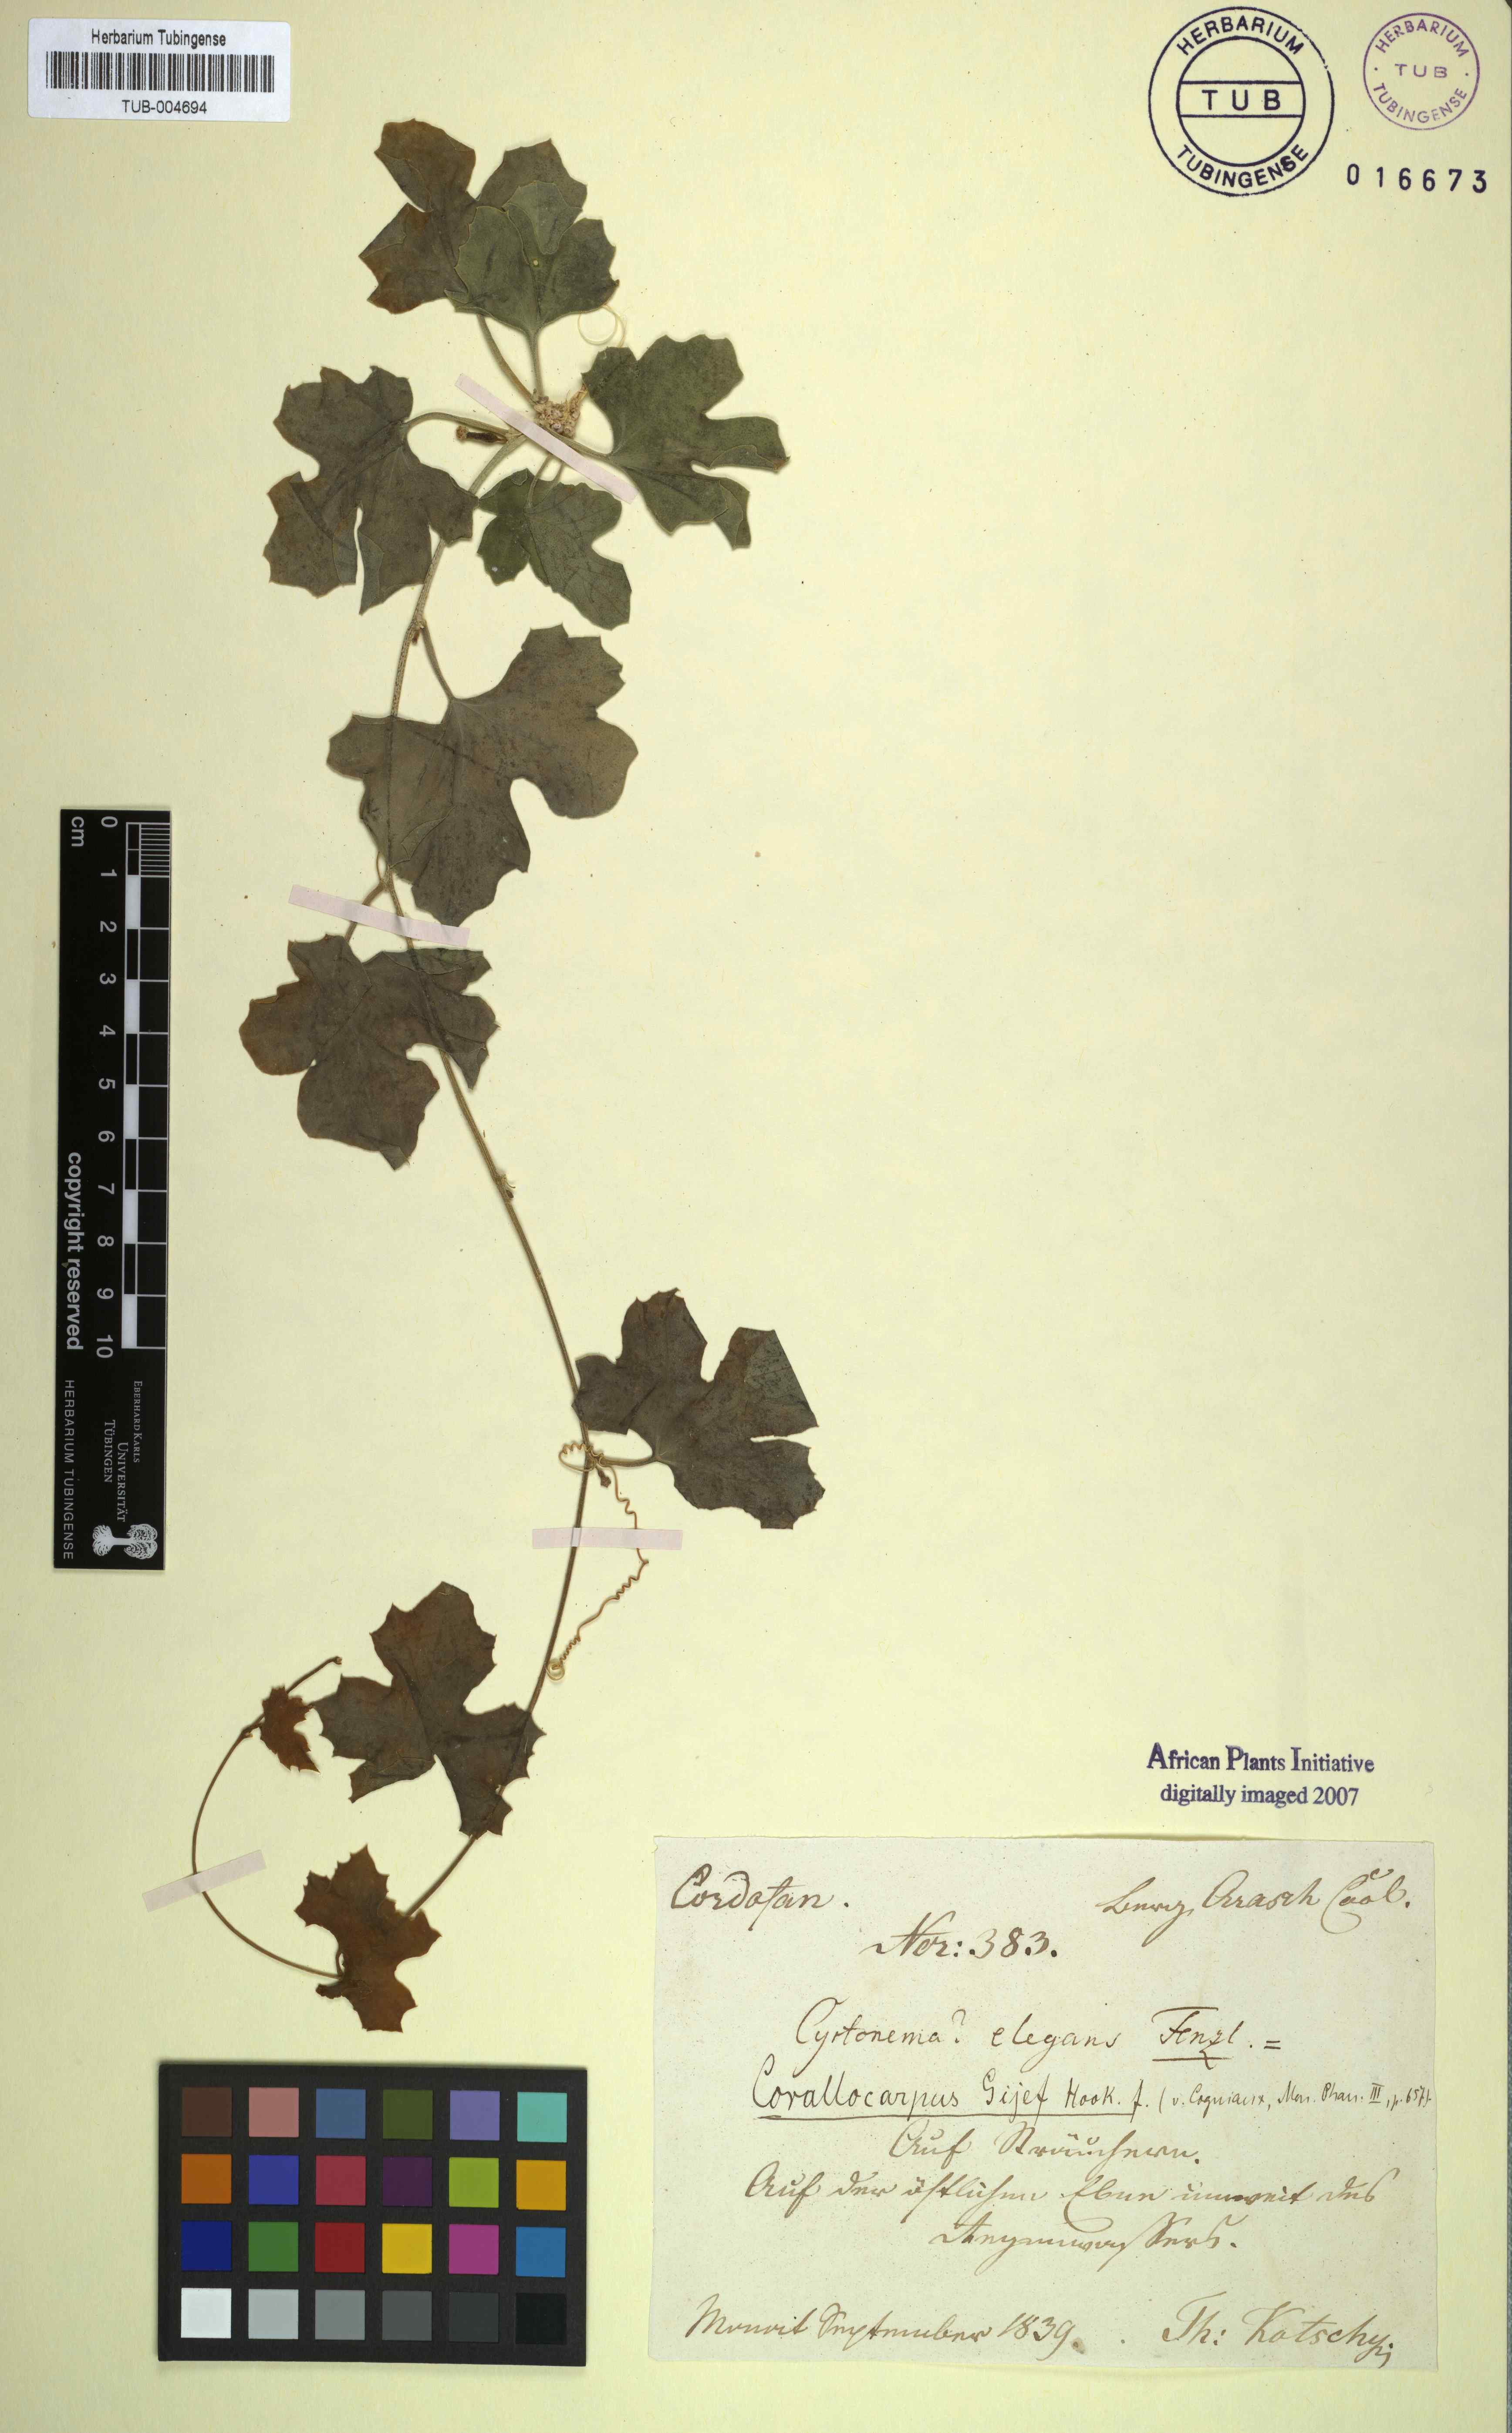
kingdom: Plantae
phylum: Tracheophyta
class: Magnoliopsida
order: Cucurbitales
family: Cucurbitaceae
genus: Kedrostis
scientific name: Kedrostis gijef
